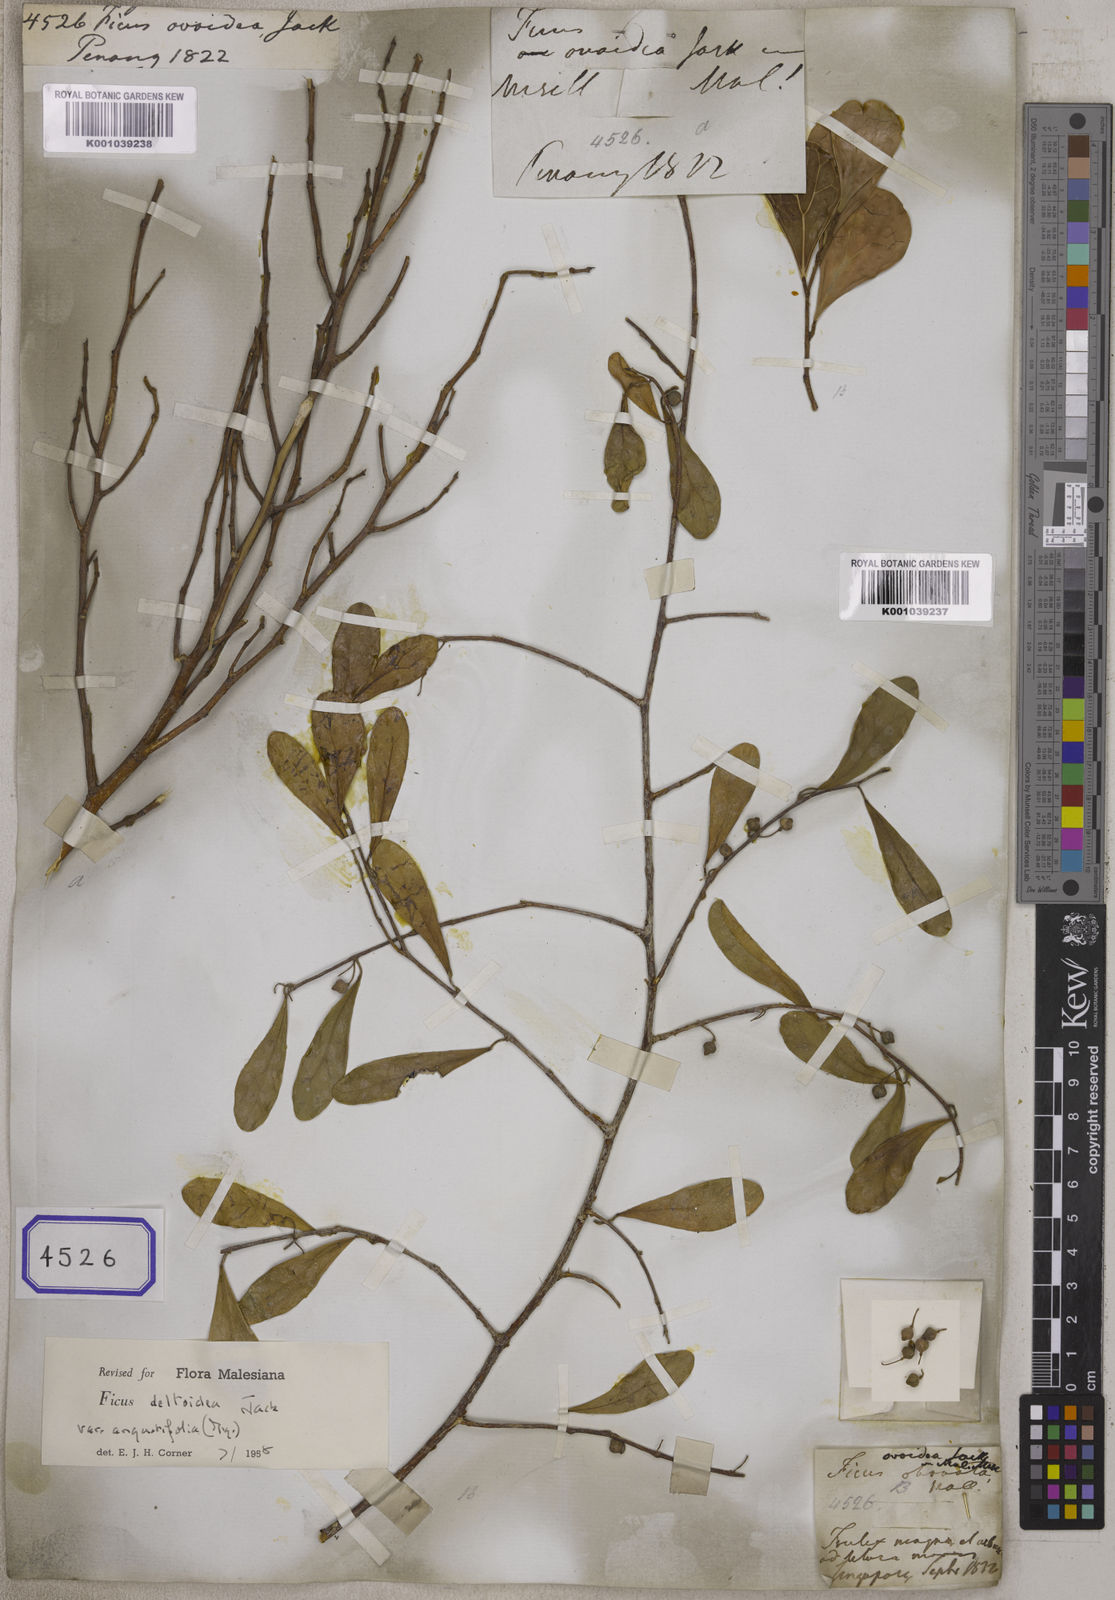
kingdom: Plantae
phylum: Tracheophyta
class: Magnoliopsida
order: Rosales
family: Moraceae
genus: Ficus
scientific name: Ficus deltoidea
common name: Mistletoe fig
